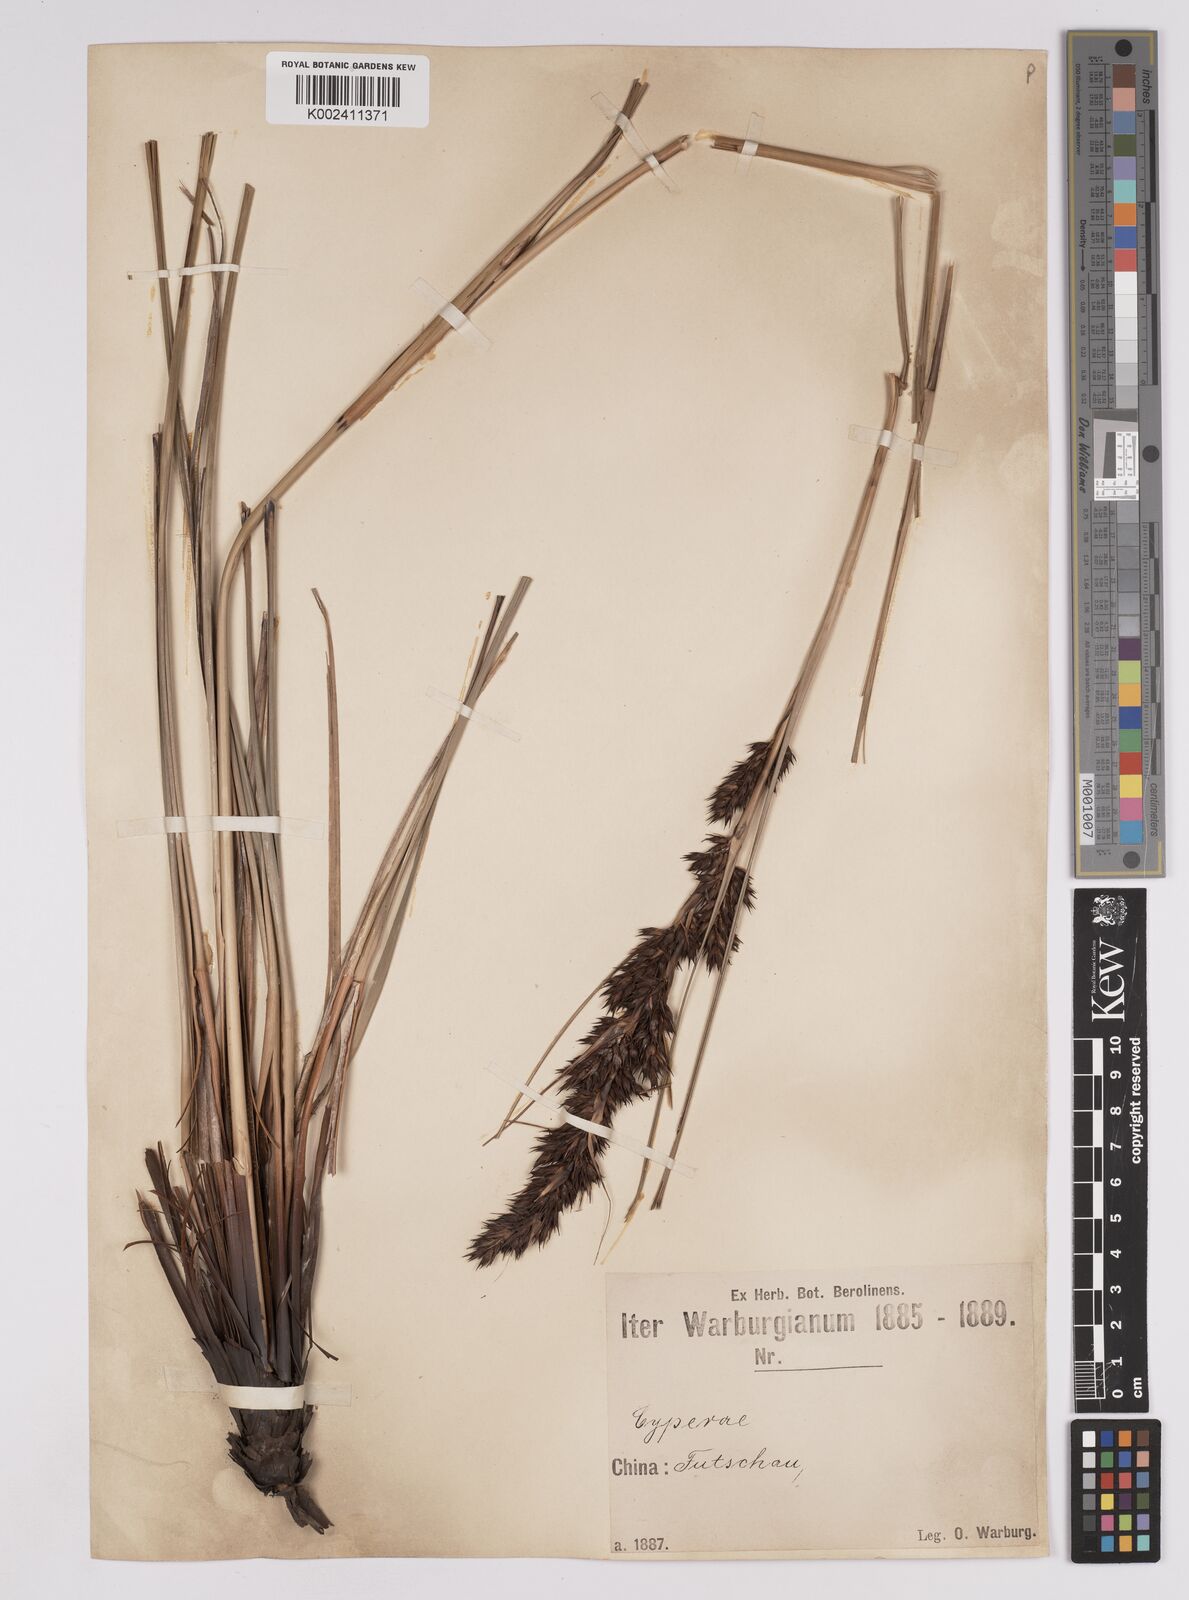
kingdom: Plantae
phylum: Tracheophyta
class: Liliopsida
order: Poales
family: Cyperaceae
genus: Gahnia
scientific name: Gahnia tristis
